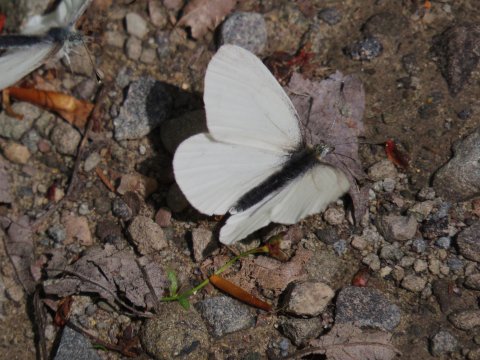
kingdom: Animalia
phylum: Arthropoda
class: Insecta
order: Lepidoptera
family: Pieridae
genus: Pieris
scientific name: Pieris virginiensis
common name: West Virginia White
